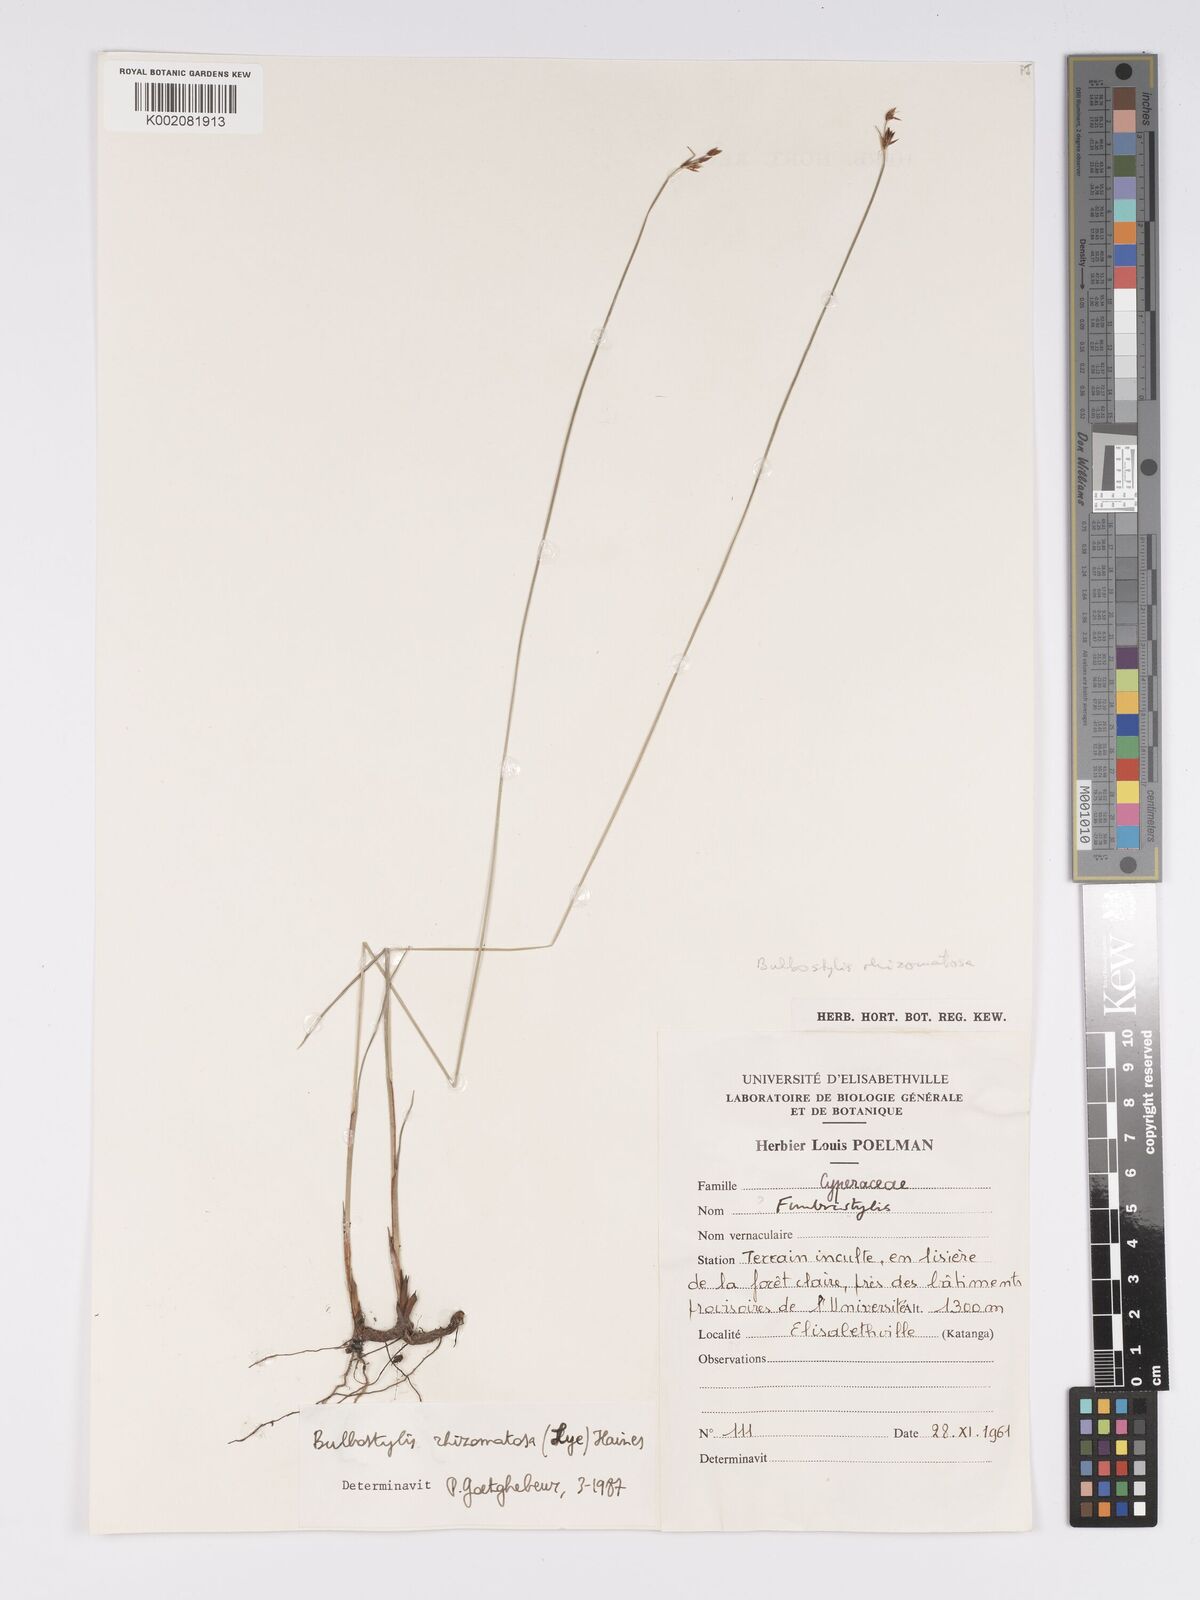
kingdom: Plantae
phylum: Tracheophyta
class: Liliopsida
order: Poales
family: Cyperaceae
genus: Bulbostylis
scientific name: Bulbostylis rhizomatosa
